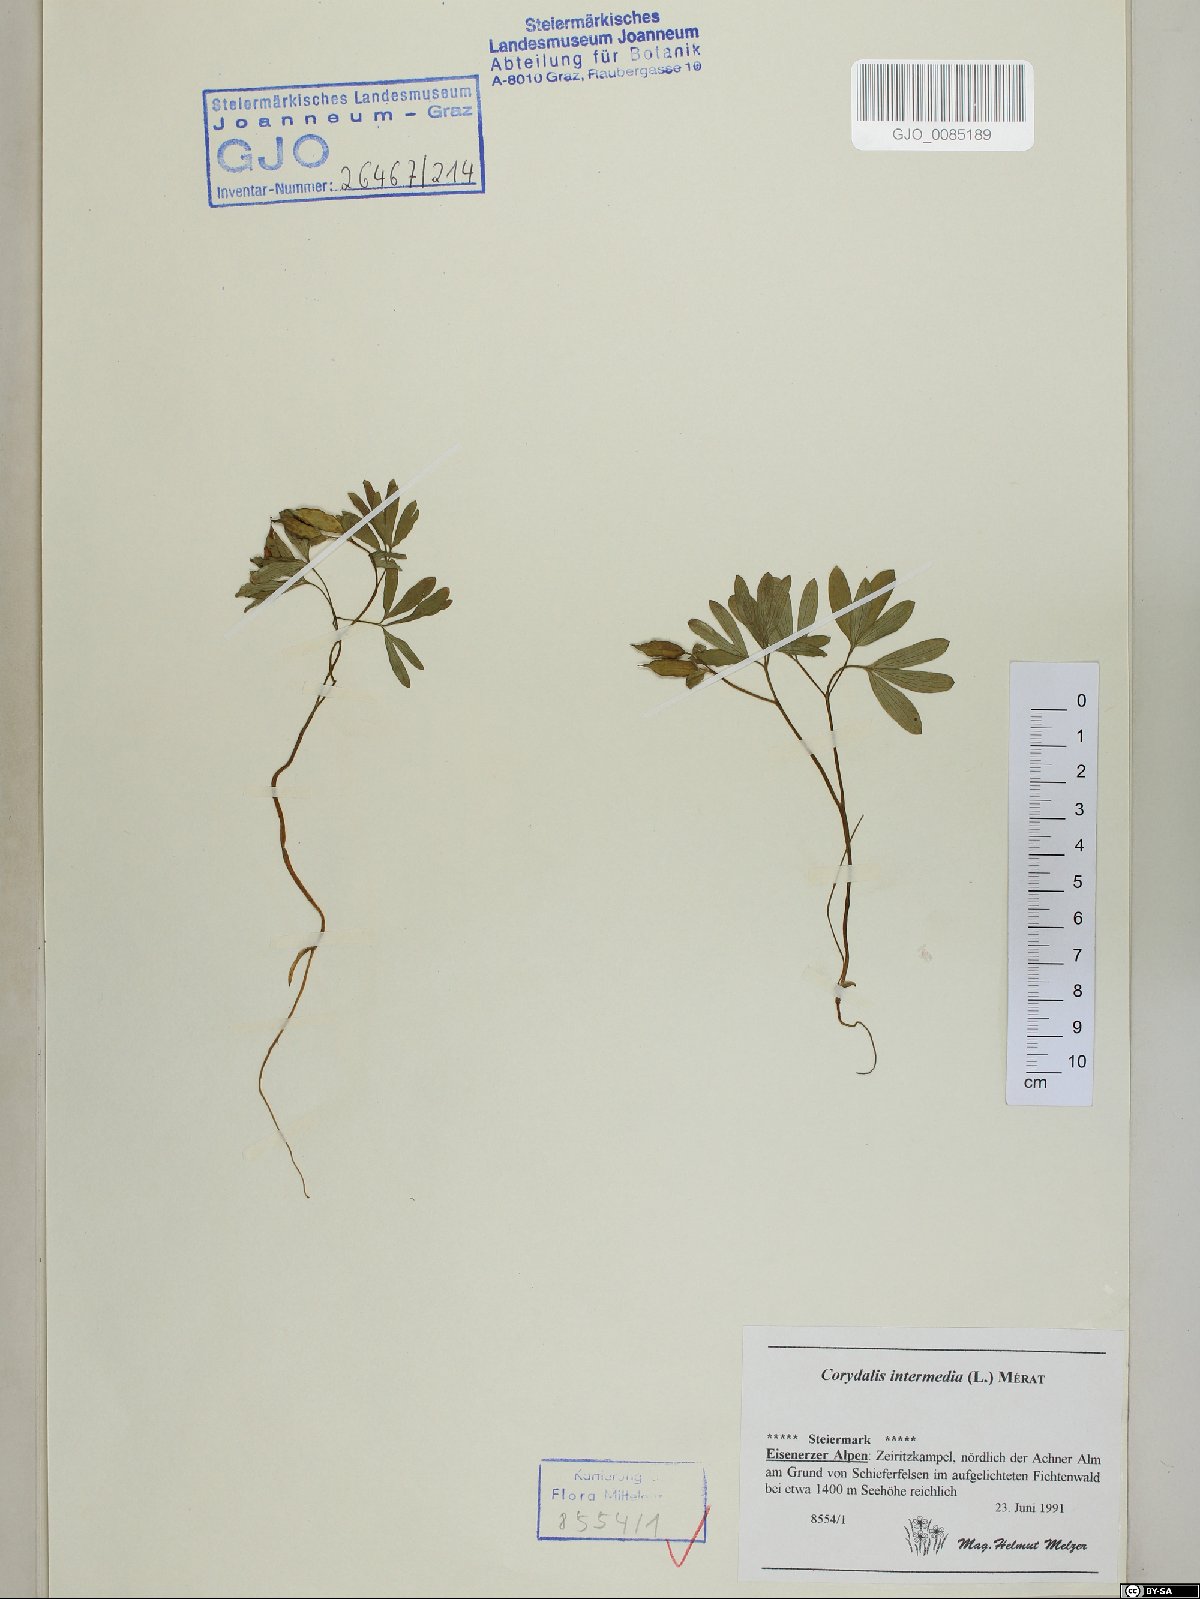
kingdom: Plantae
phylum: Tracheophyta
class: Magnoliopsida
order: Ranunculales
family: Papaveraceae
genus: Corydalis
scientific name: Corydalis intermedia
